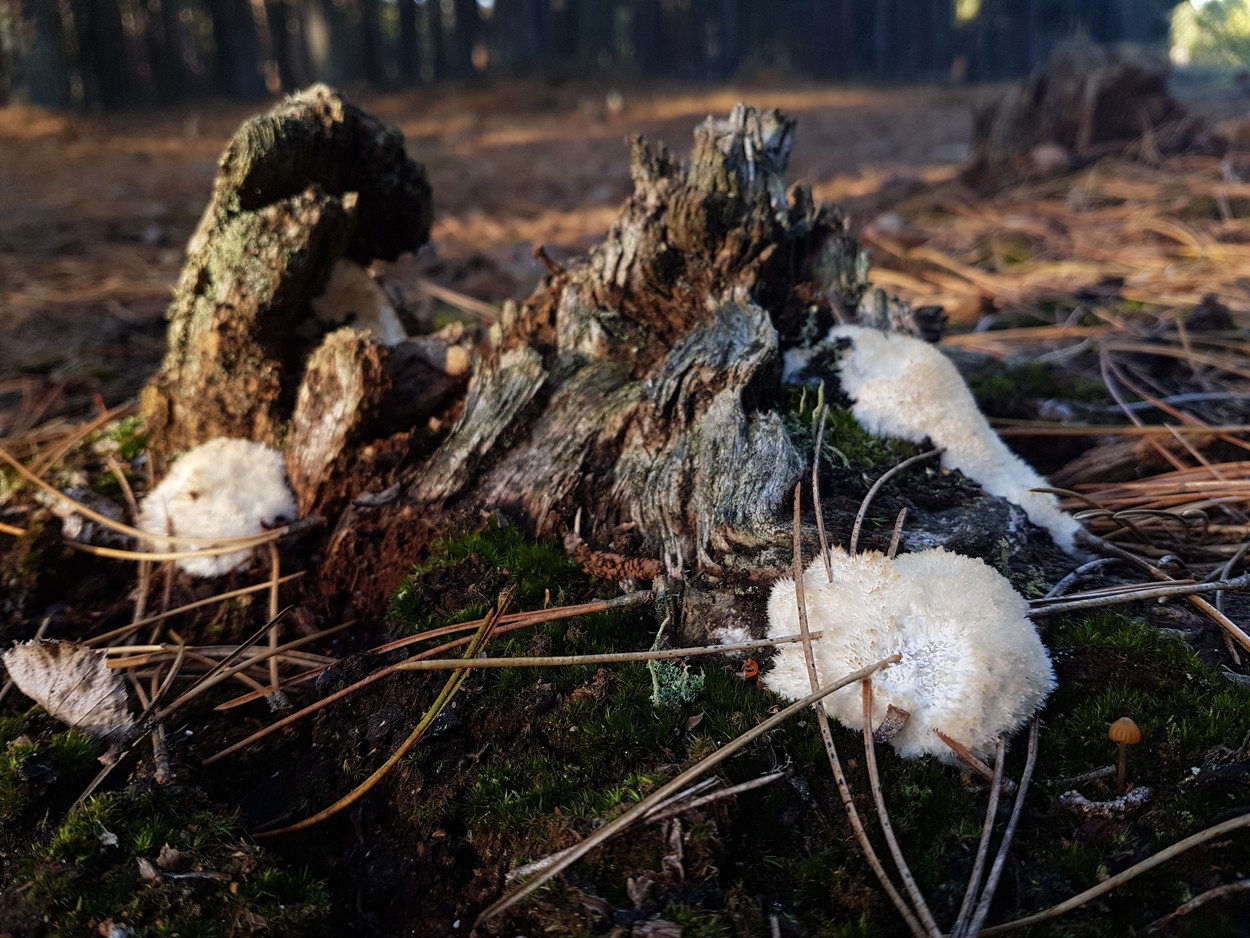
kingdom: Fungi
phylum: Basidiomycota
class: Agaricomycetes
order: Polyporales
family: Dacryobolaceae
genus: Postia
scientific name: Postia ptychogaster
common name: støvende kødporesvamp
